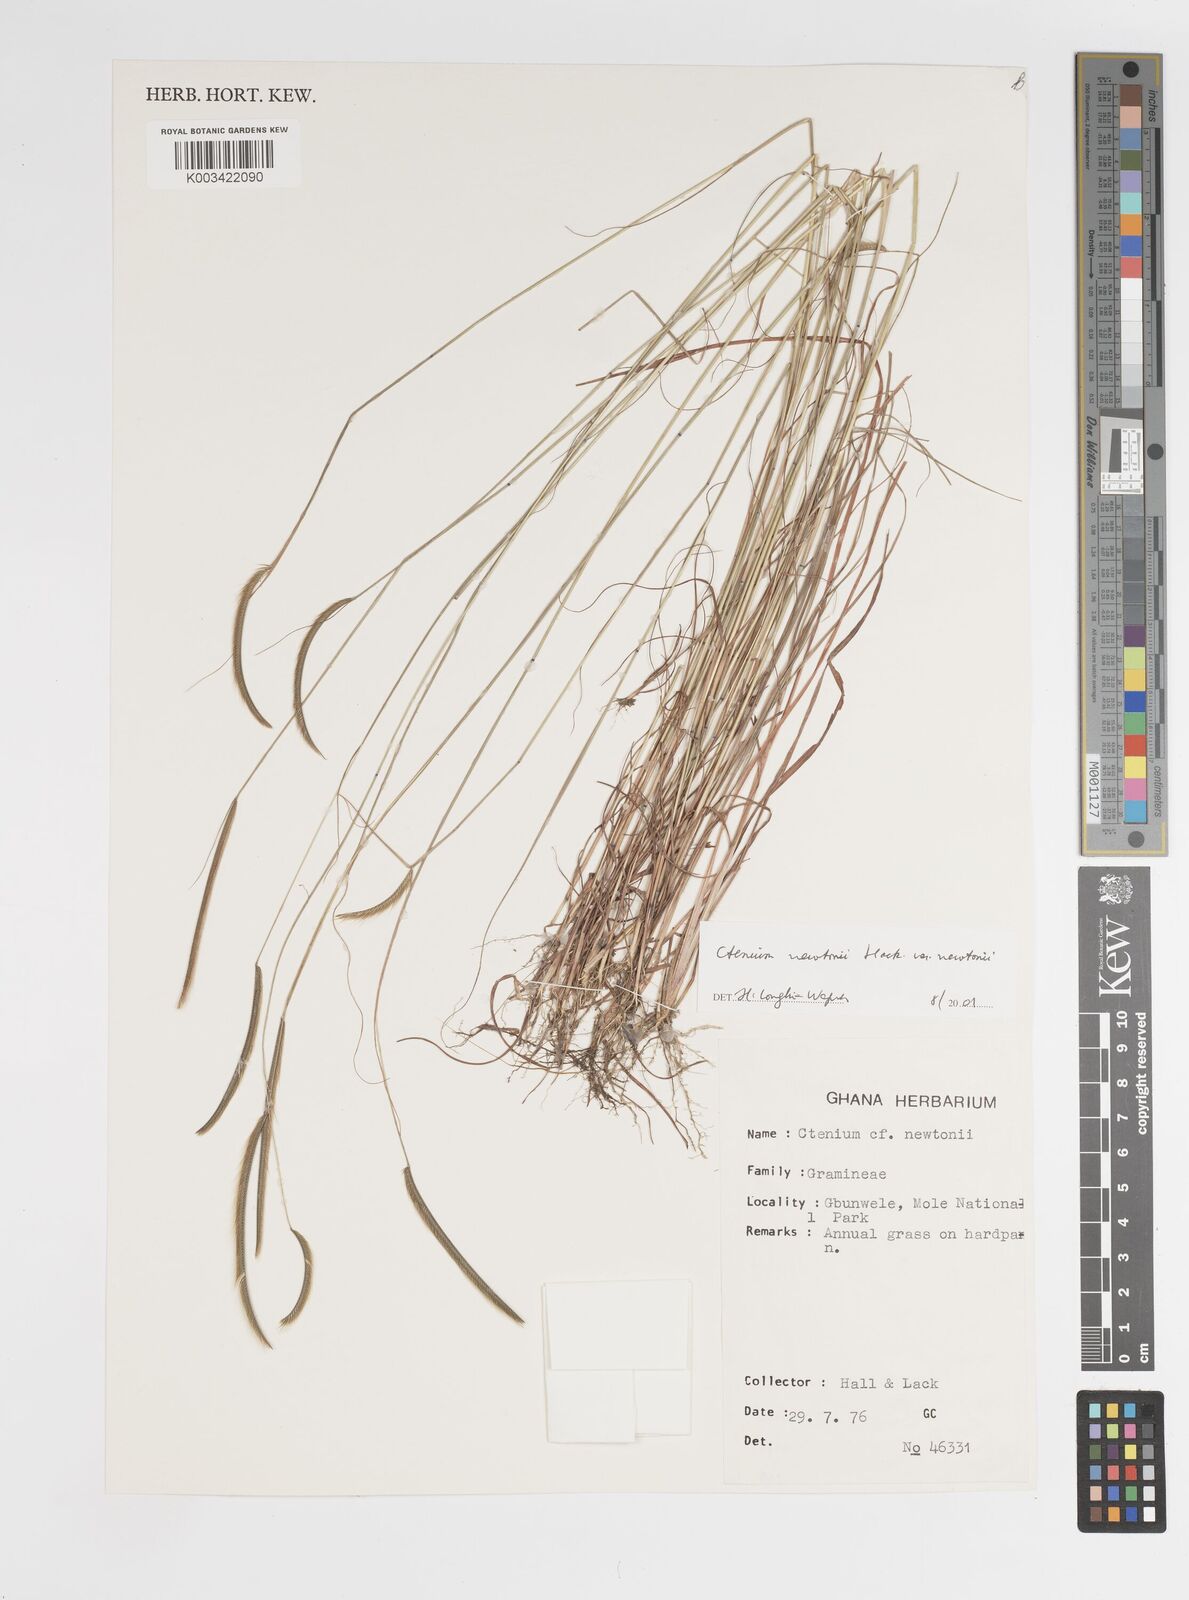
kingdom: Plantae
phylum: Tracheophyta
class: Liliopsida
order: Poales
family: Poaceae
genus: Ctenium
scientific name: Ctenium newtonii
